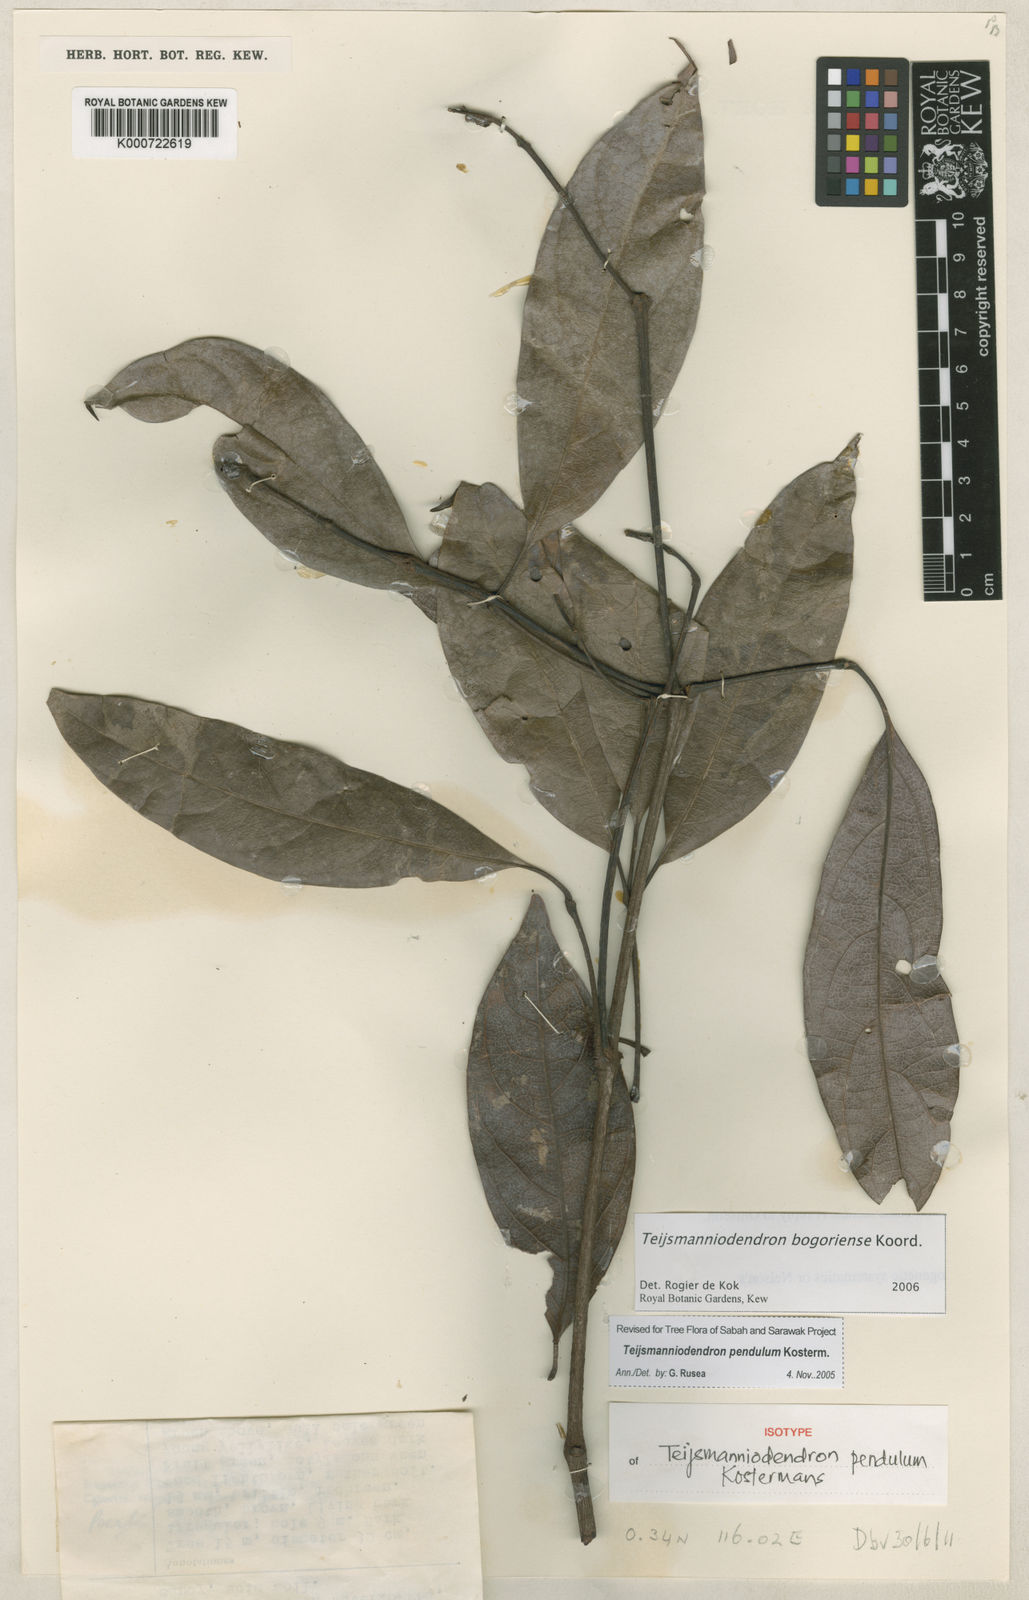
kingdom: Plantae
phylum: Tracheophyta
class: Magnoliopsida
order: Lamiales
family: Lamiaceae
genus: Teijsmanniodendron
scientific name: Teijsmanniodendron bogoriense
